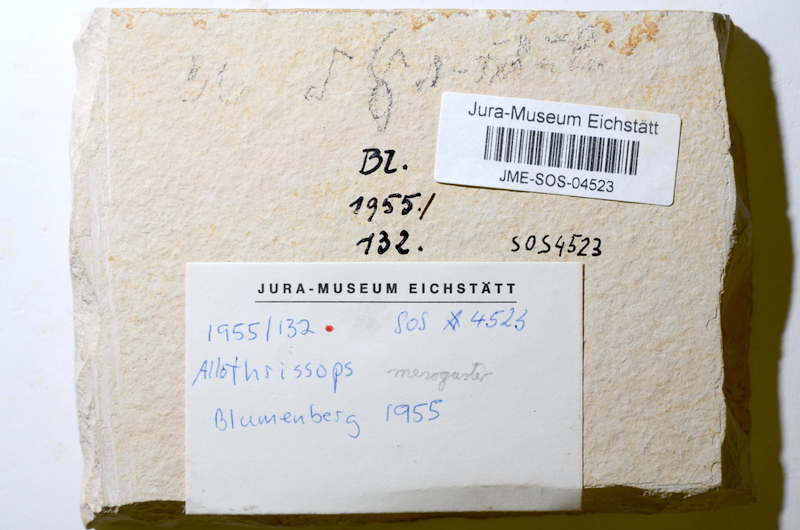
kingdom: Animalia
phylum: Chordata
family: Allothrissopidae
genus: Allothrissops
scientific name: Allothrissops mesogaster
